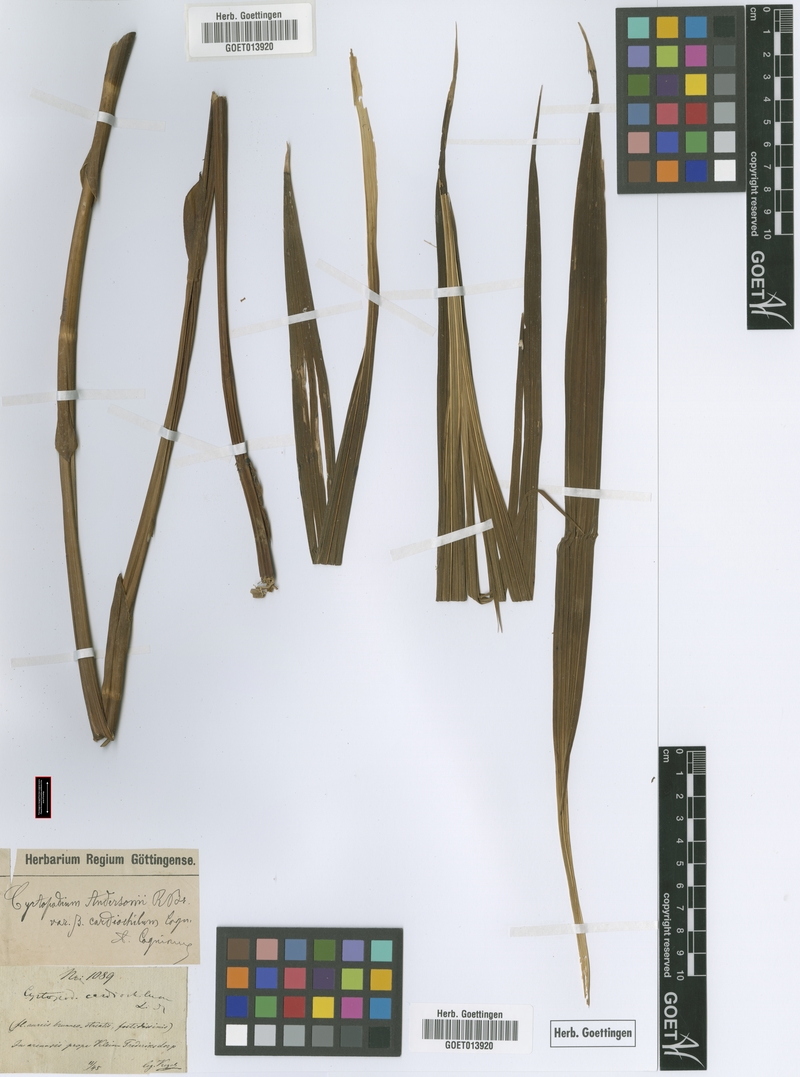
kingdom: Plantae
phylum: Tracheophyta
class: Liliopsida
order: Asparagales
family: Orchidaceae
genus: Cyrtopodium
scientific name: Cyrtopodium andersonii
